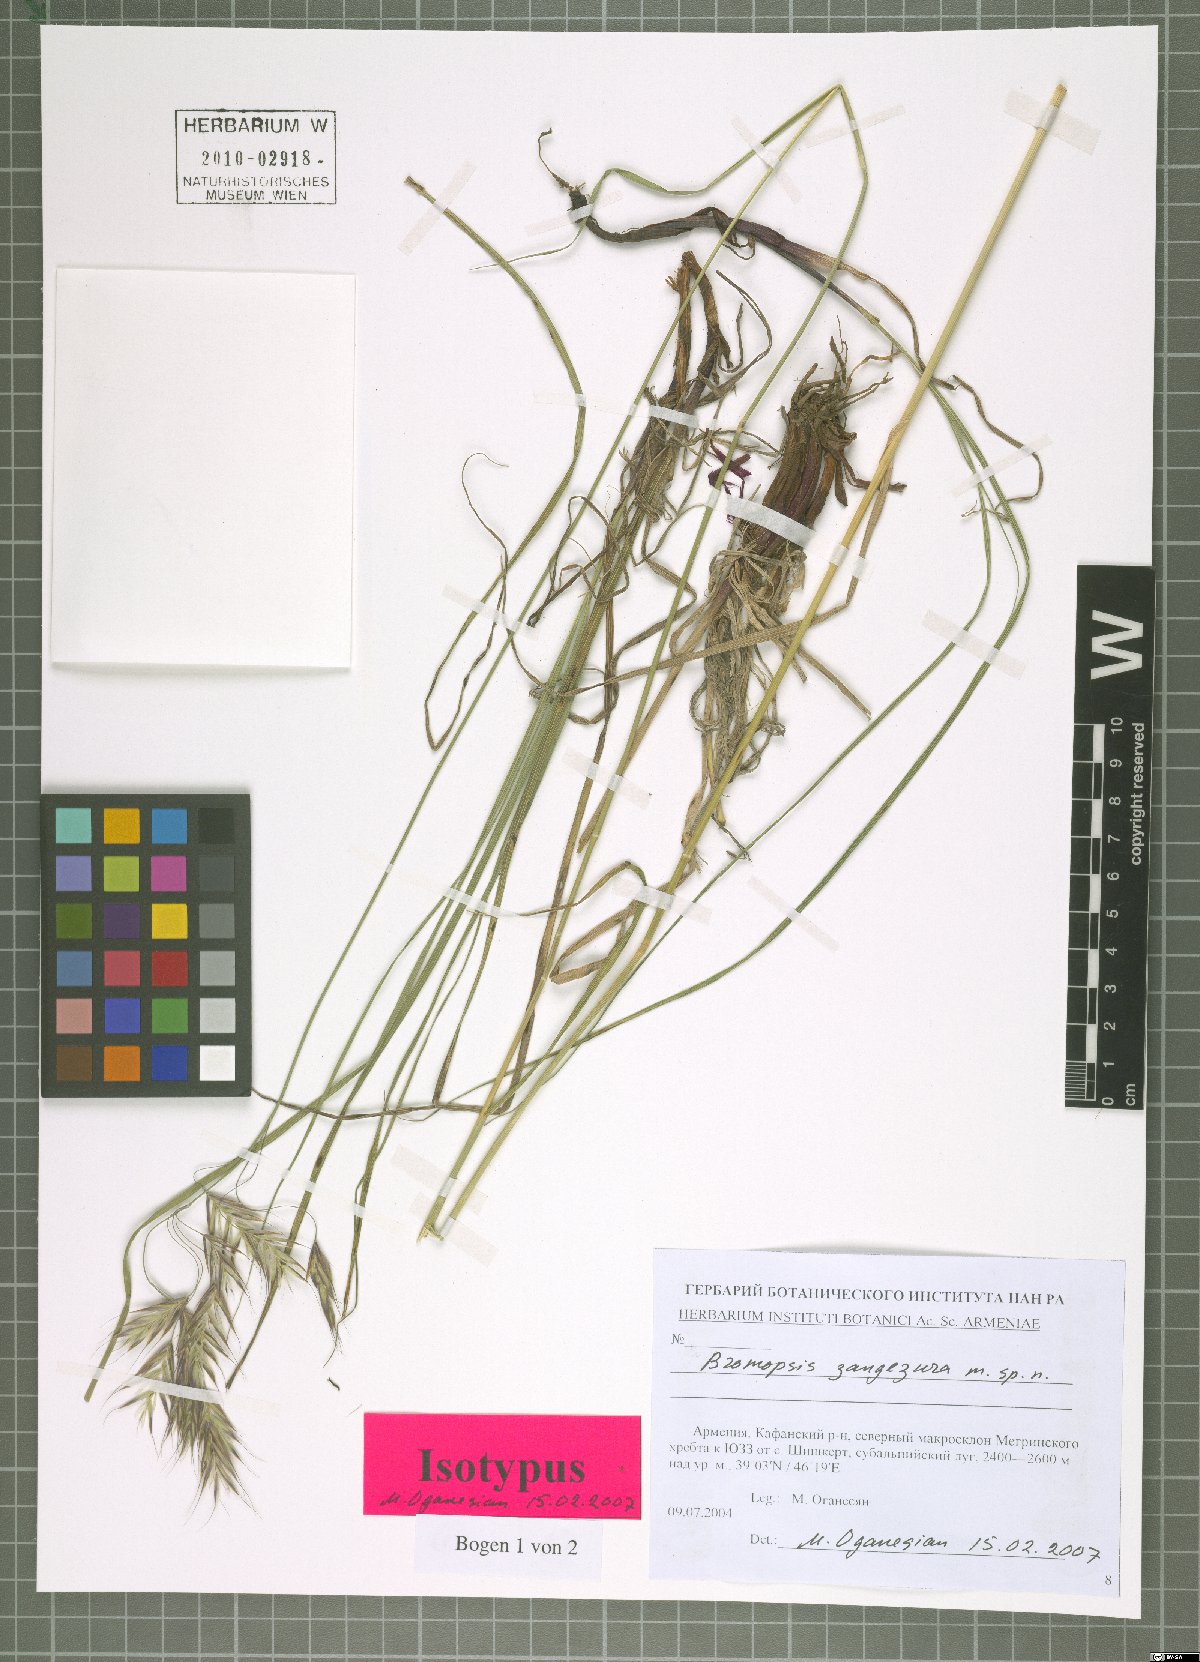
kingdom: Plantae
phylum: Tracheophyta
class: Liliopsida
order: Poales
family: Poaceae
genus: Bromus
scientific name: Bromus erectus
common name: Erect brome
